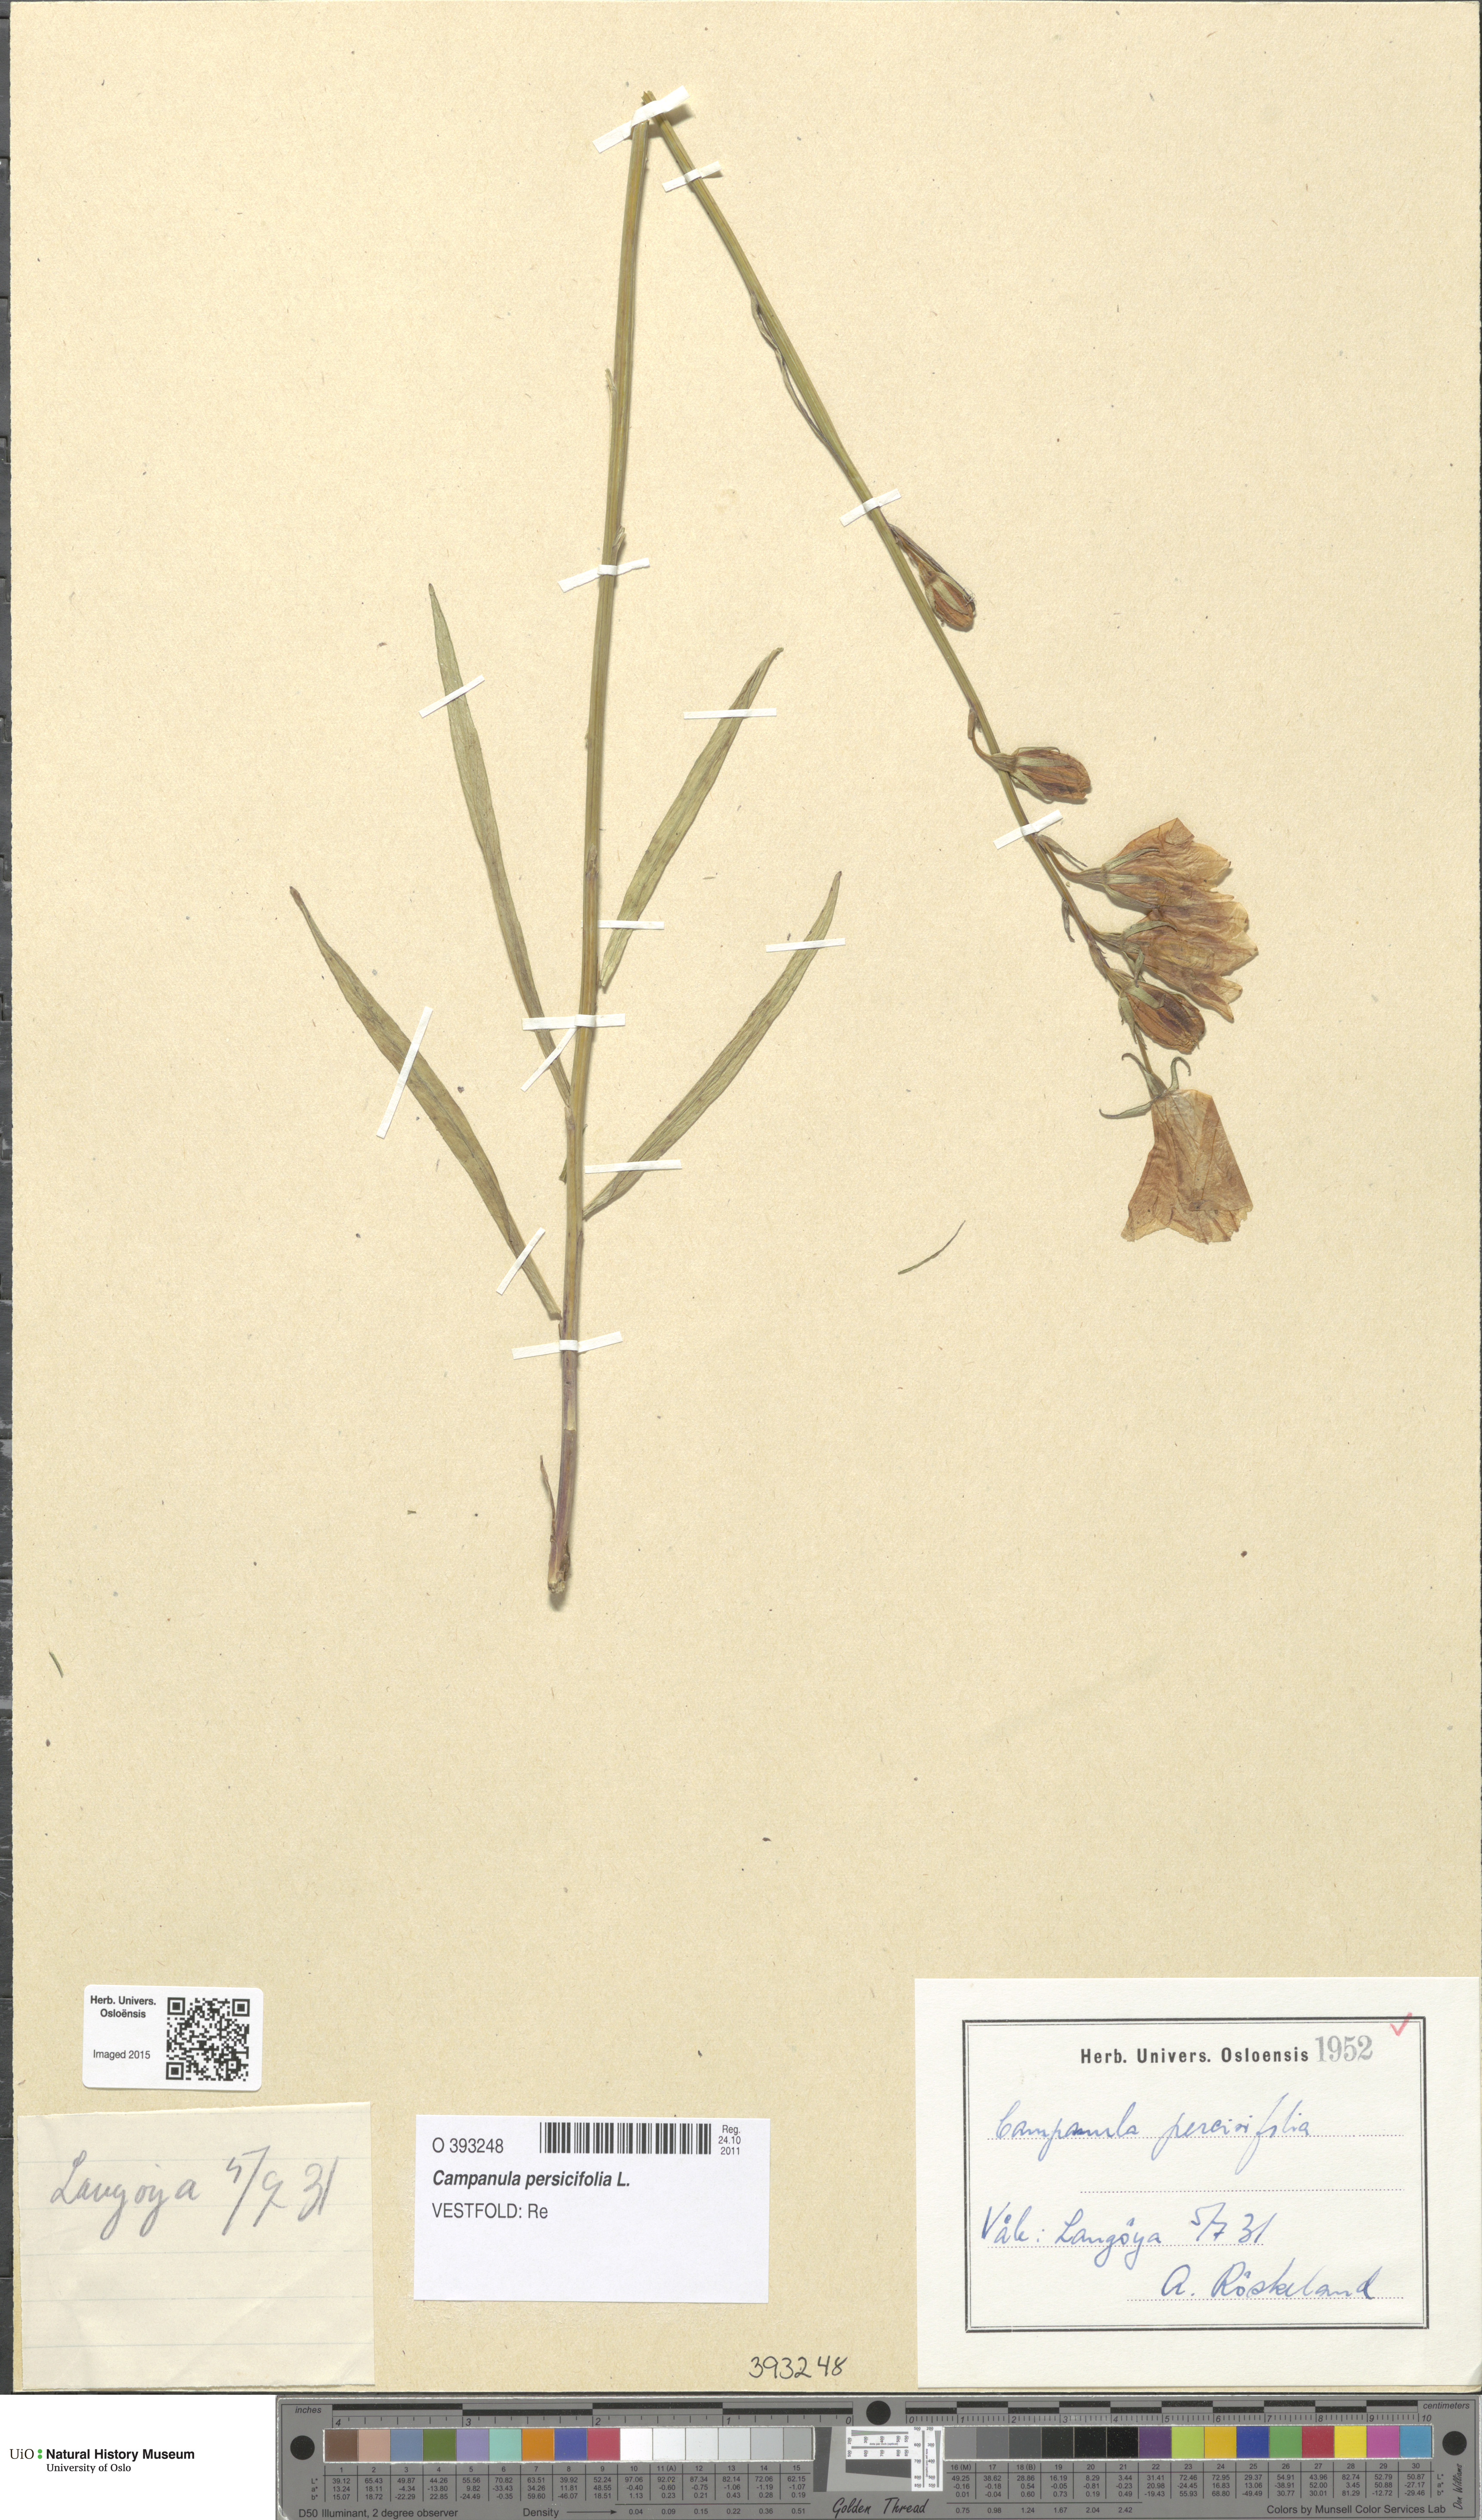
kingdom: Plantae
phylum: Tracheophyta
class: Magnoliopsida
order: Asterales
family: Campanulaceae
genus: Campanula
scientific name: Campanula persicifolia
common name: Peach-leaved bellflower
